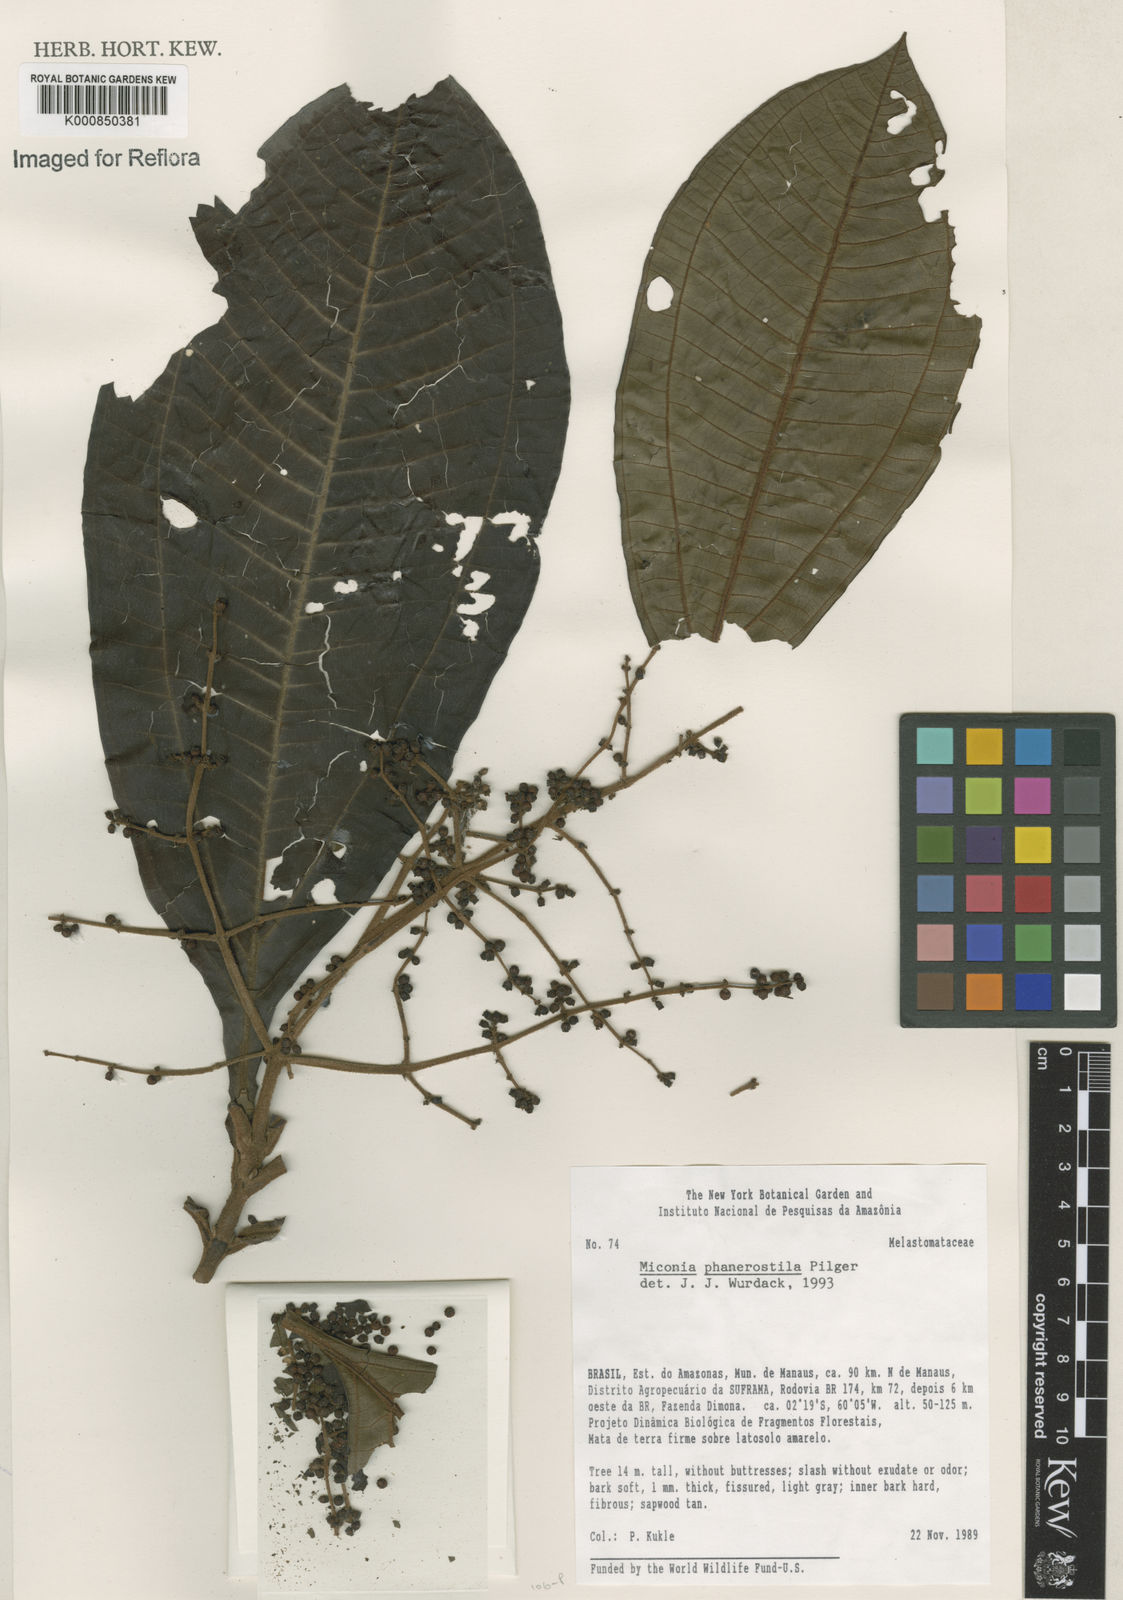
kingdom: Plantae
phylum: Tracheophyta
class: Magnoliopsida
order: Myrtales
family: Melastomataceae
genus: Miconia
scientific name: Miconia phanerostila
